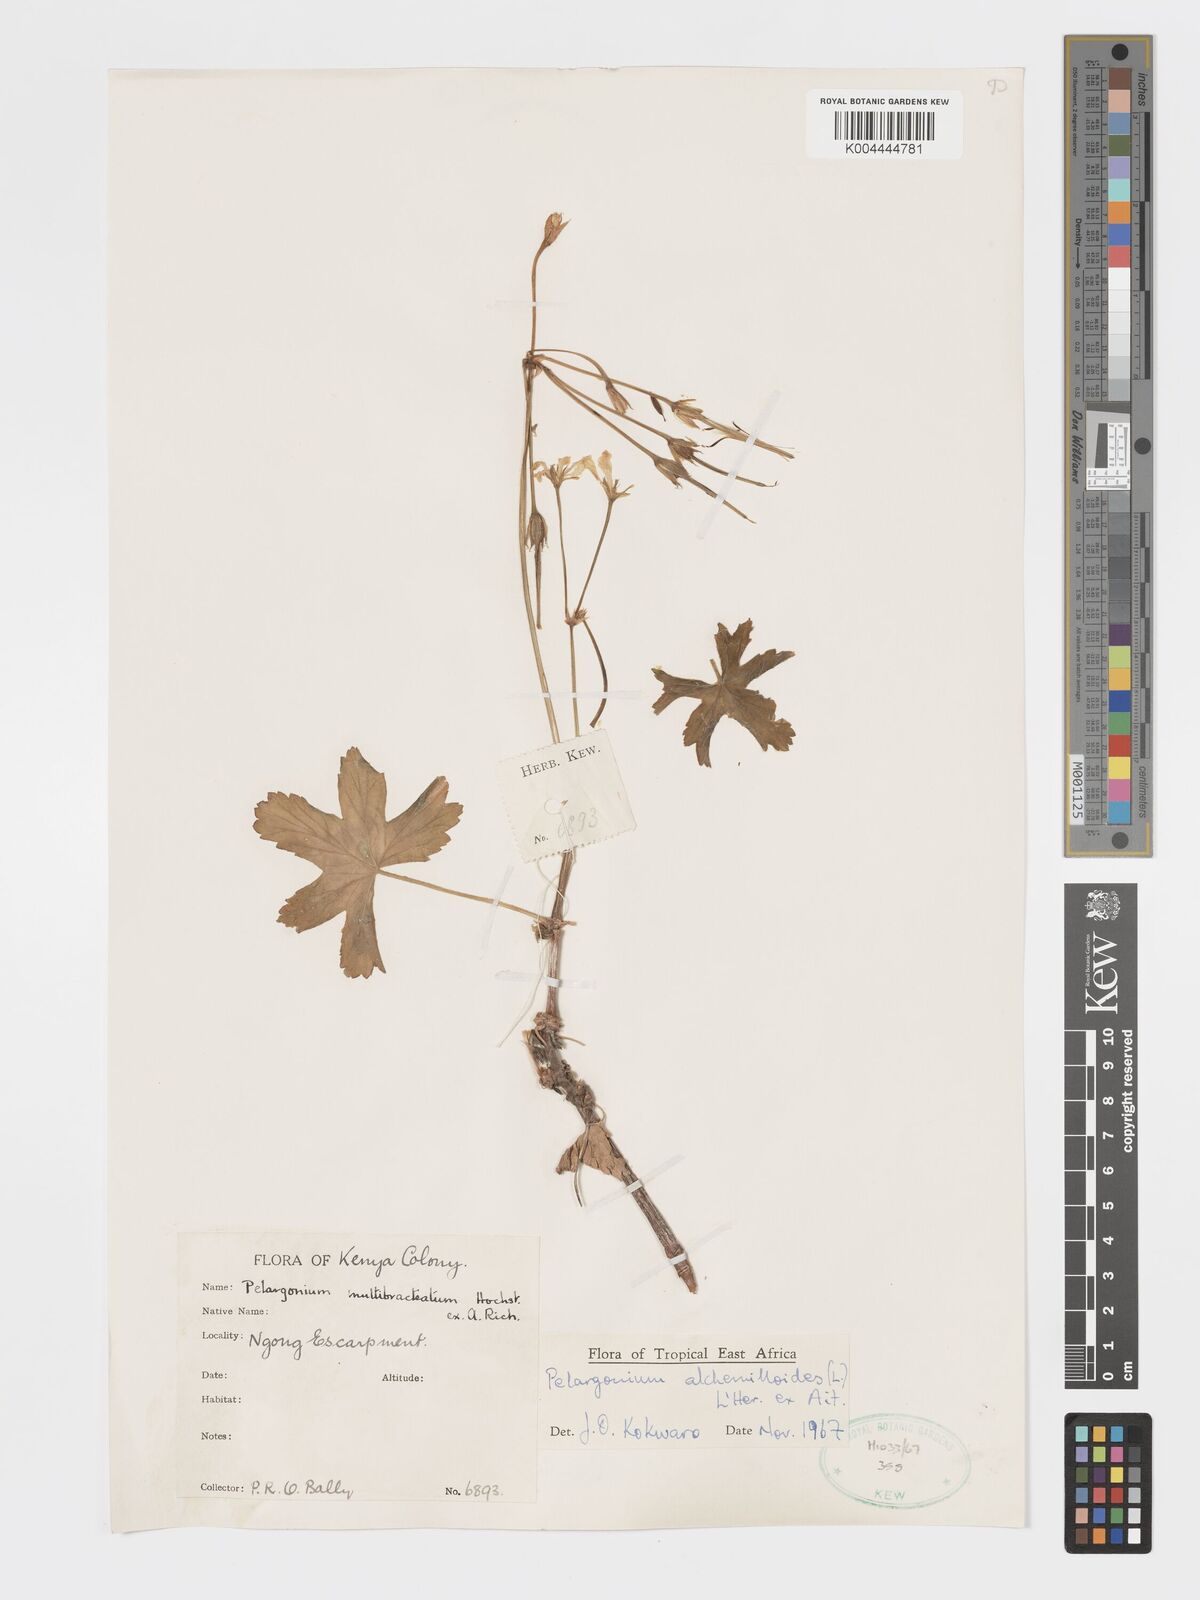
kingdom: Plantae
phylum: Tracheophyta
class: Magnoliopsida
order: Geraniales
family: Geraniaceae
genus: Pelargonium
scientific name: Pelargonium alchemilloides
